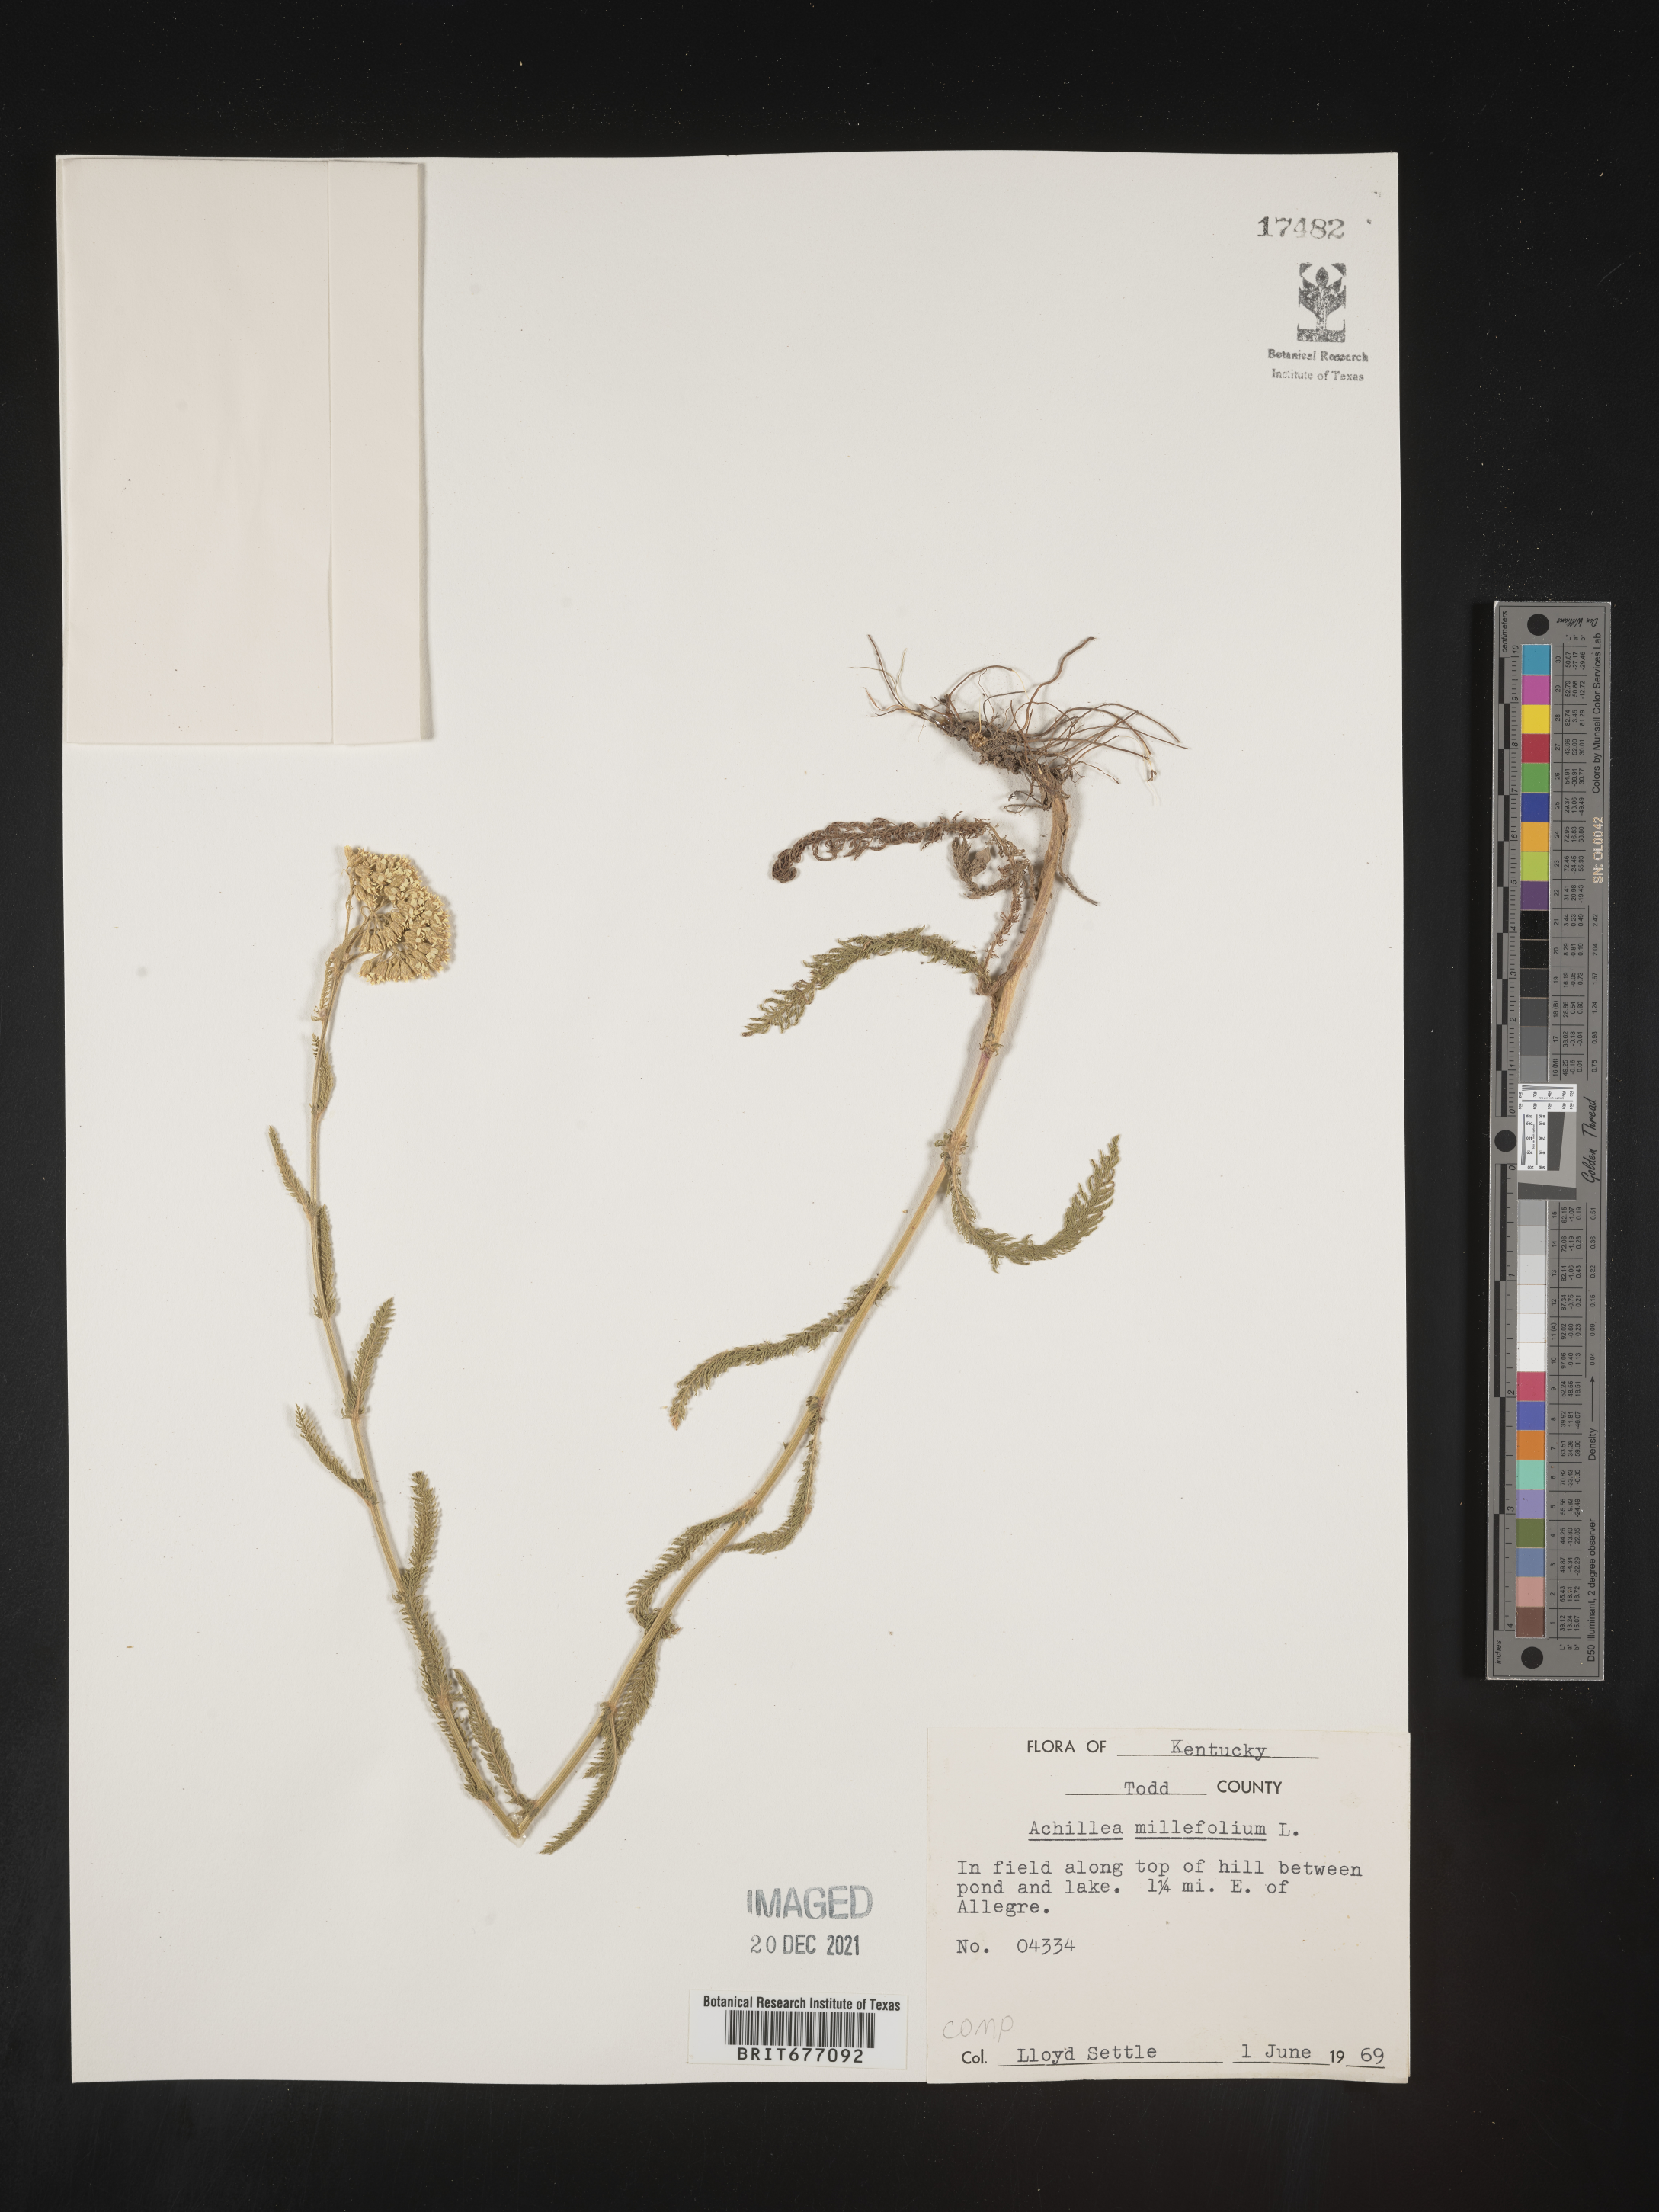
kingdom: Plantae
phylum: Tracheophyta
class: Magnoliopsida
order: Asterales
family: Asteraceae
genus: Achillea
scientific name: Achillea millefolium
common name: Yarrow
